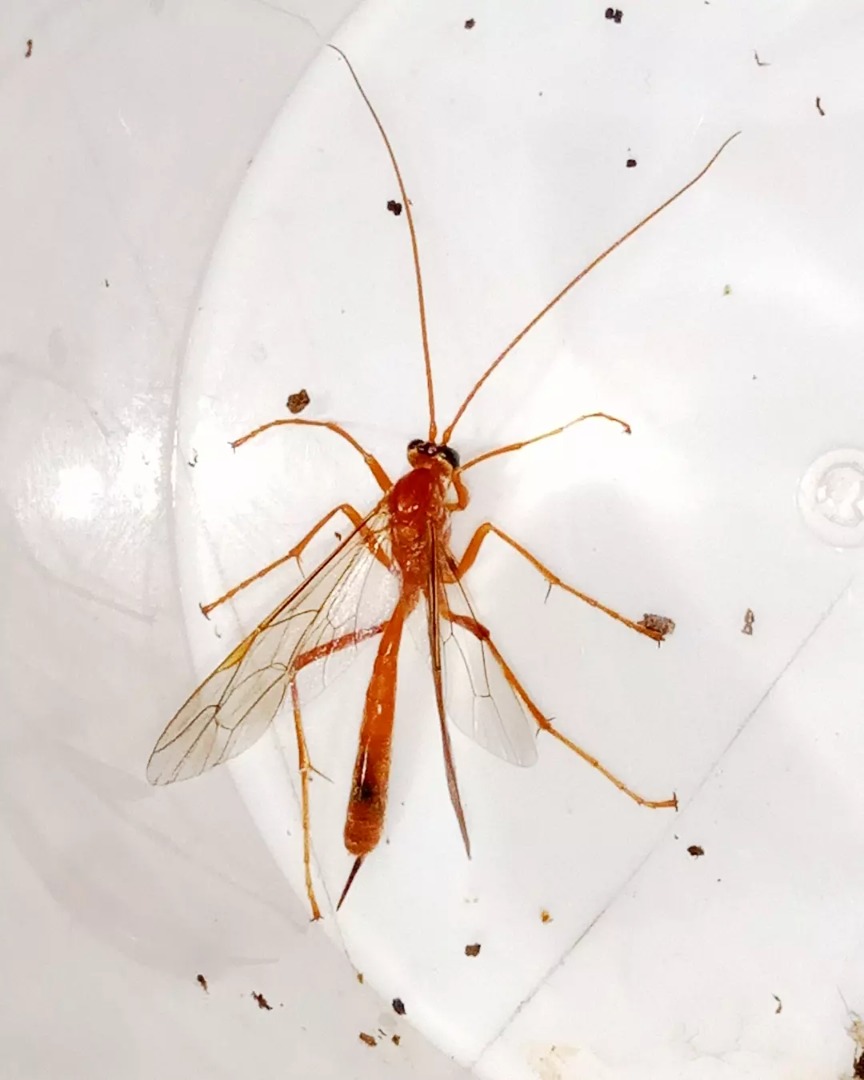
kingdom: Animalia
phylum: Arthropoda
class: Insecta
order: Hymenoptera
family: Ichneumonidae
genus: Netelia
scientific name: Netelia
